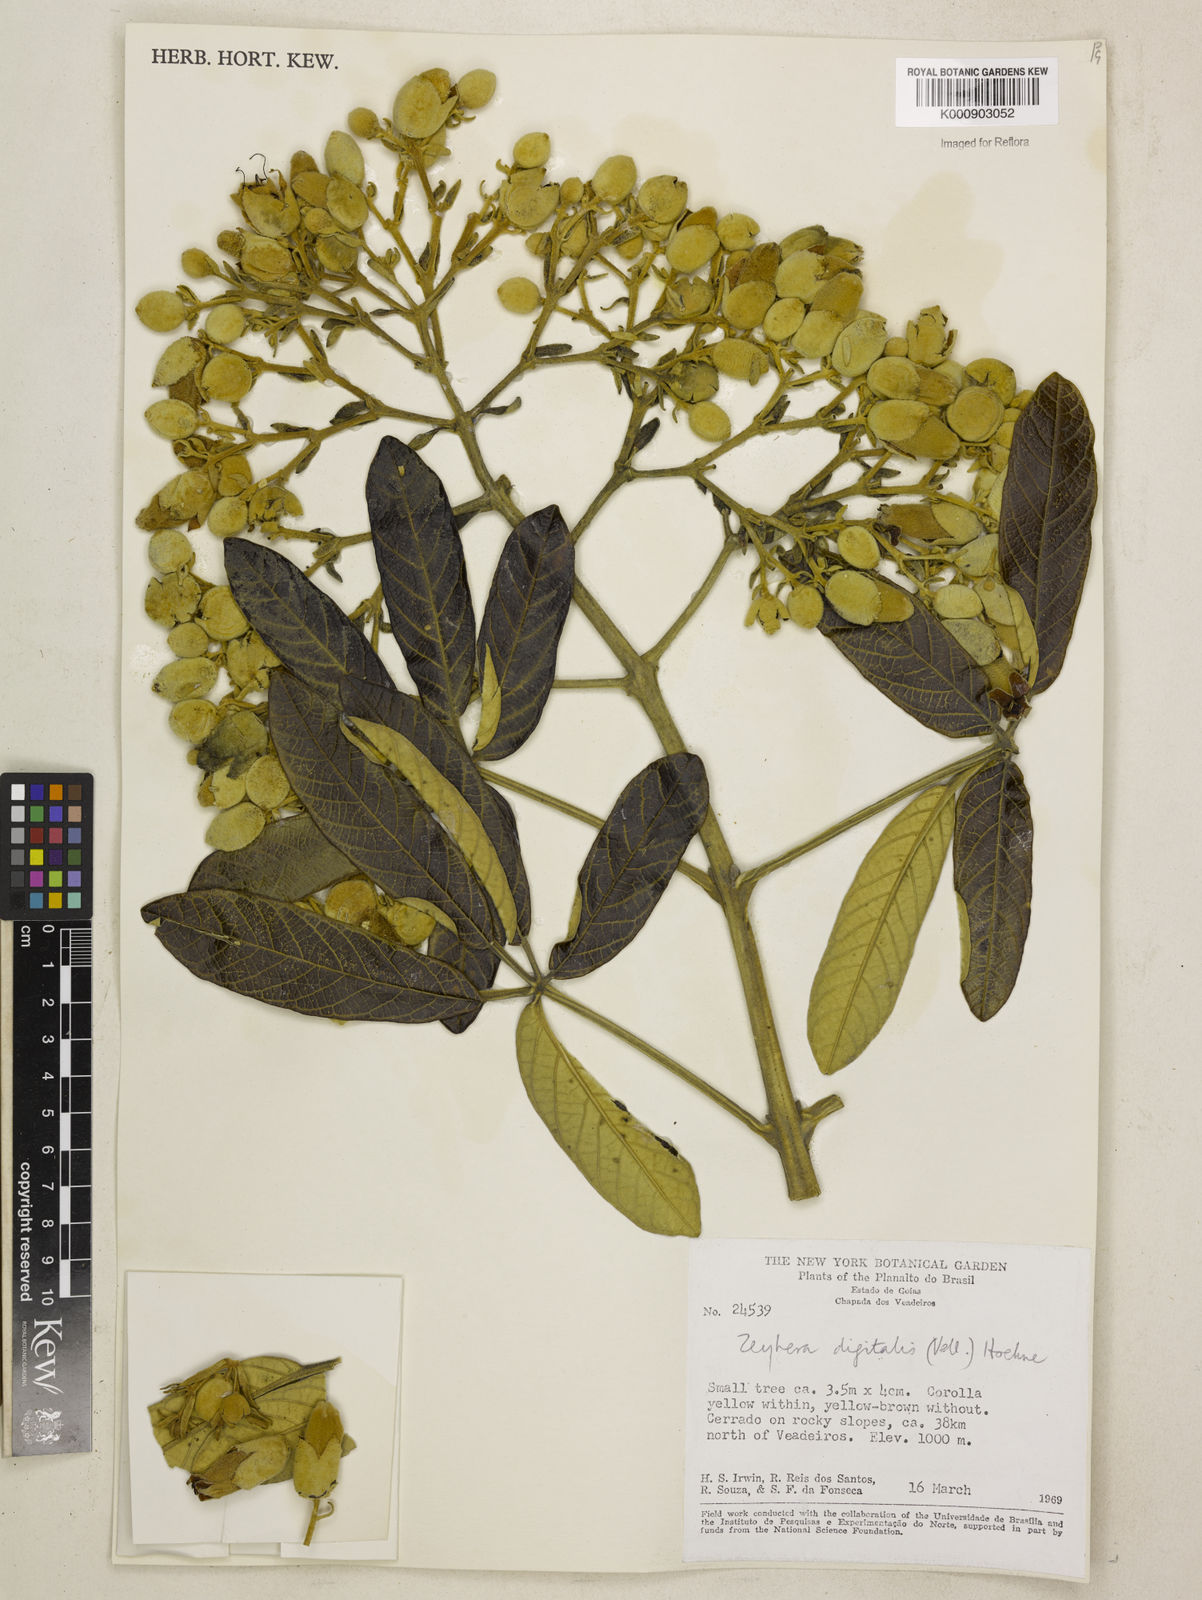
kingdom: Plantae
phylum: Tracheophyta
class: Magnoliopsida
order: Lamiales
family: Bignoniaceae
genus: Zeyheria
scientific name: Zeyheria
